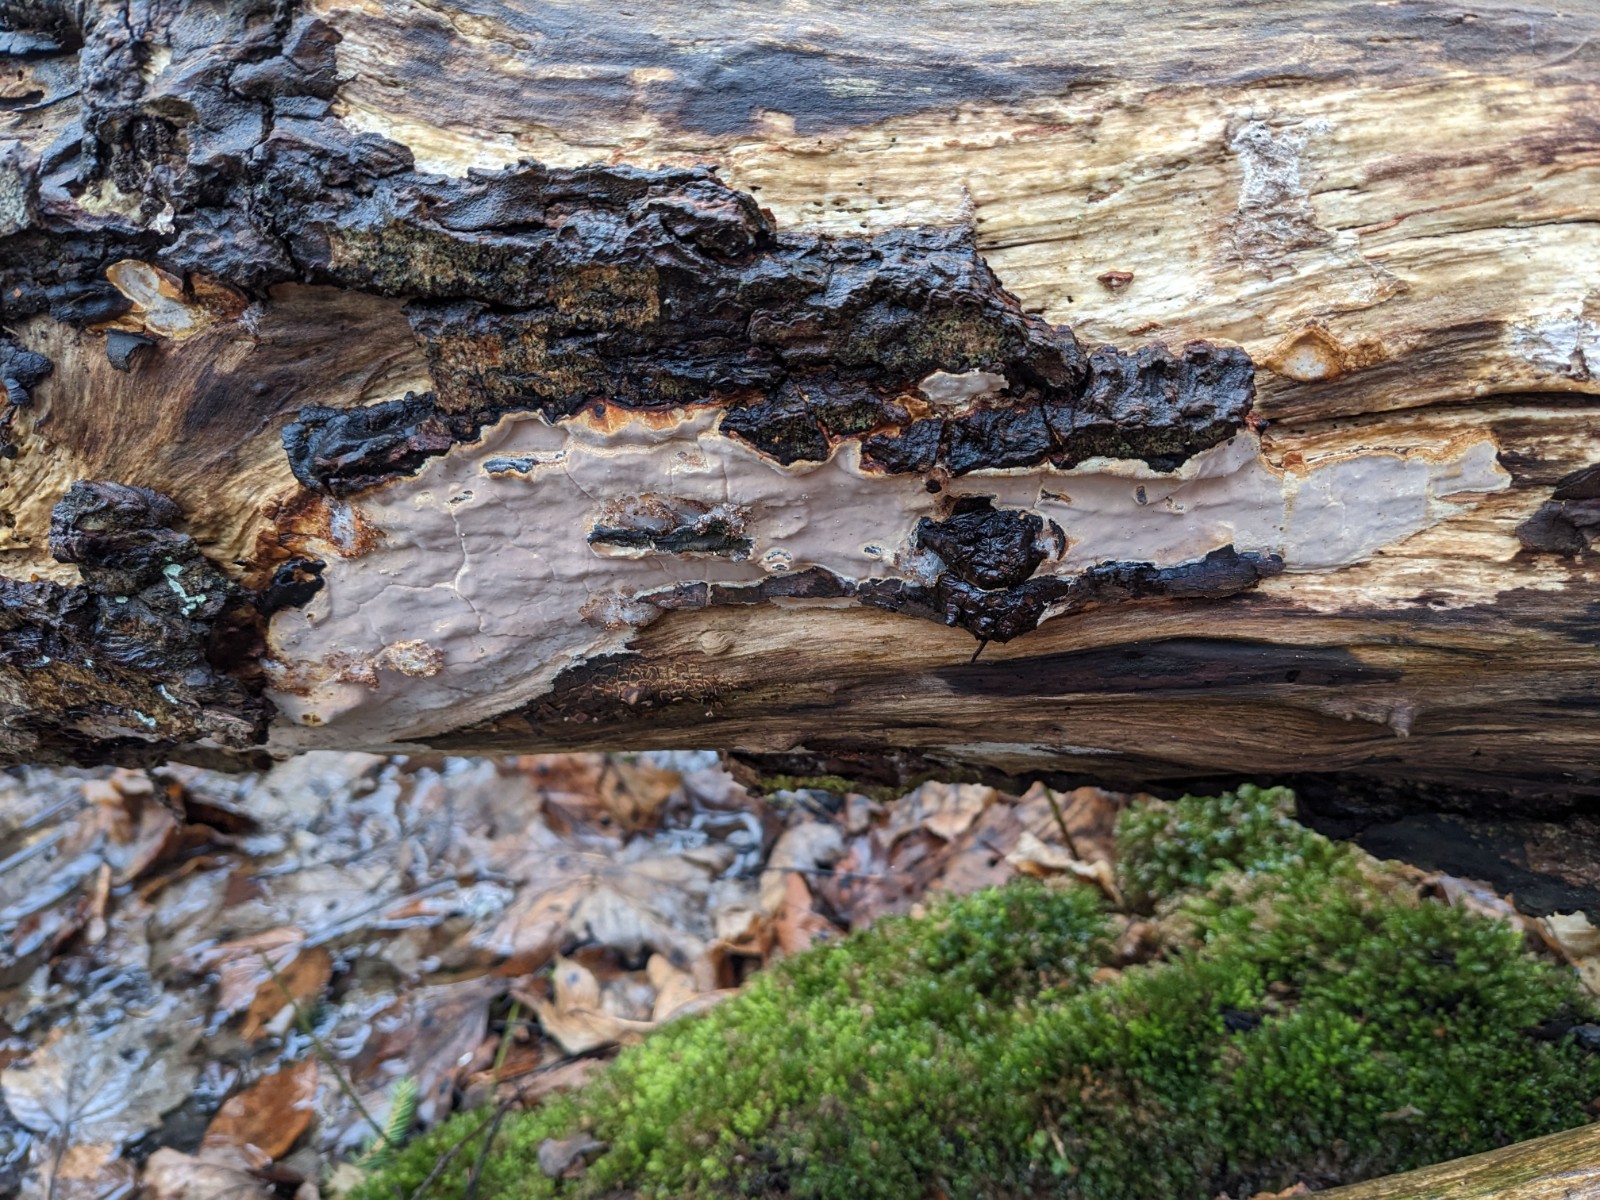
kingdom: Fungi
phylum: Basidiomycota
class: Agaricomycetes
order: Russulales
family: Peniophoraceae
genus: Scytinostroma
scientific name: Scytinostroma hemidichophyticum
